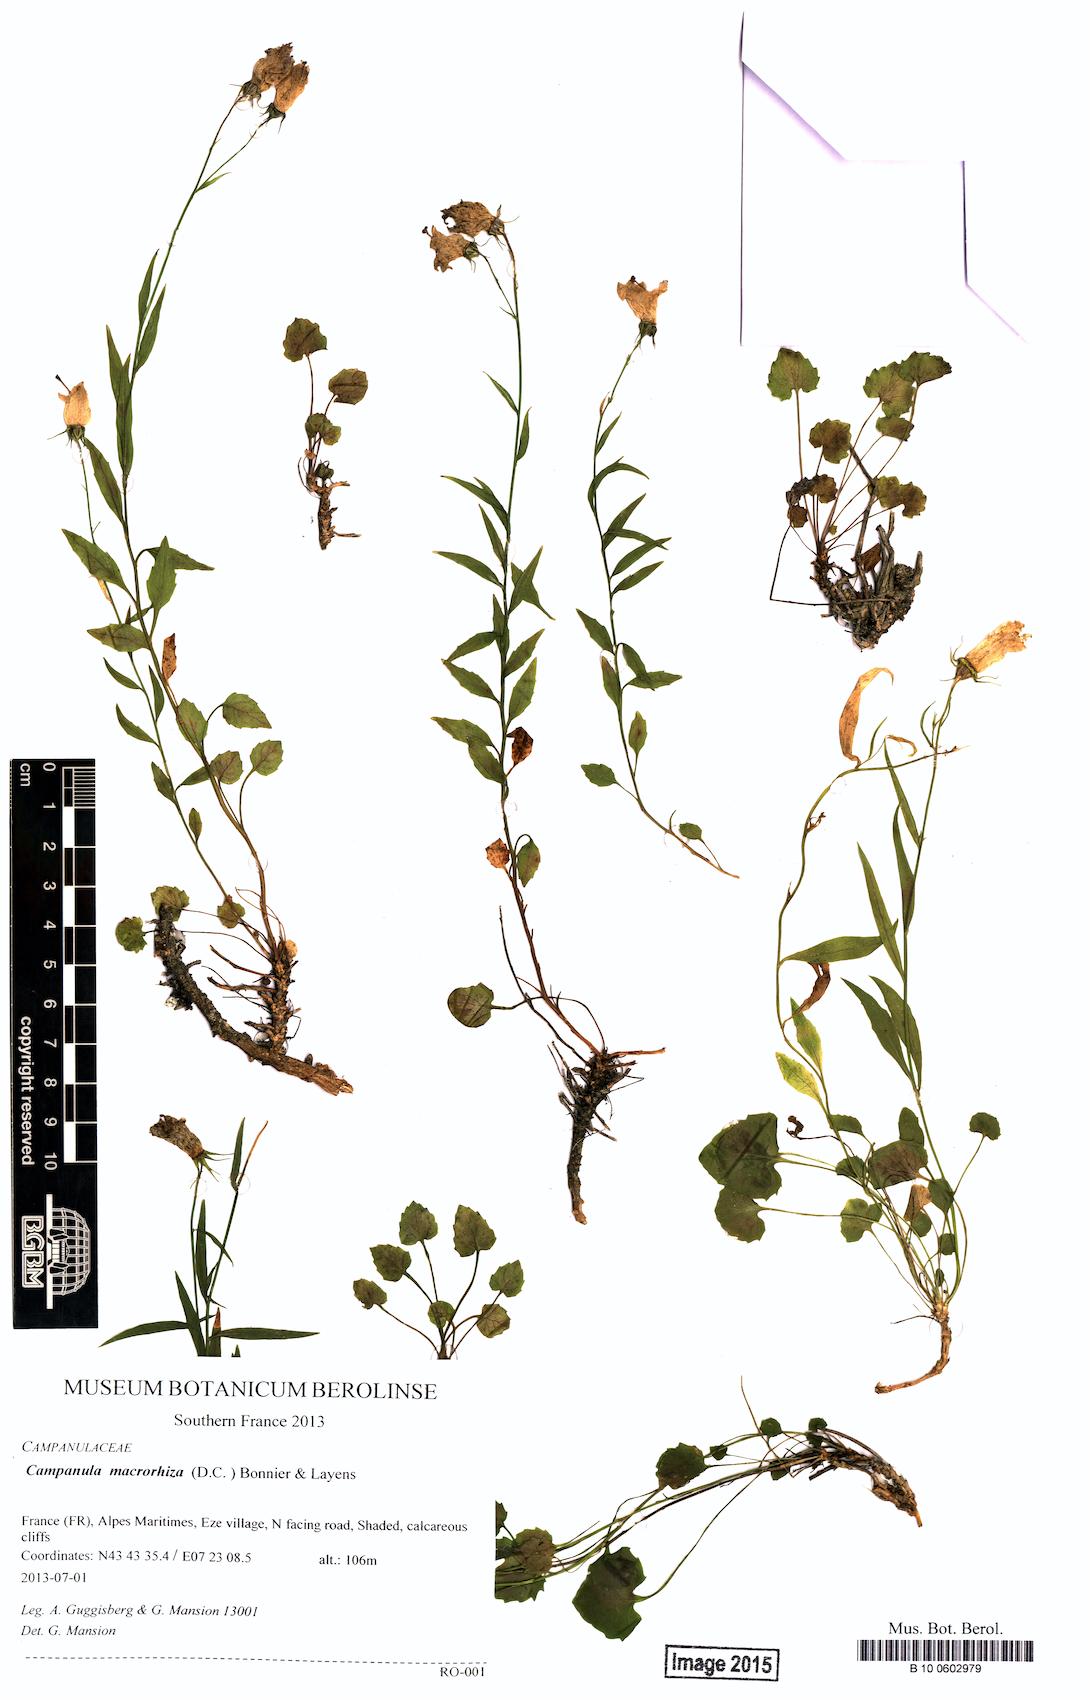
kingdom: Plantae
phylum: Tracheophyta
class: Magnoliopsida
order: Asterales
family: Campanulaceae
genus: Campanula
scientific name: Campanula macrorhiza
